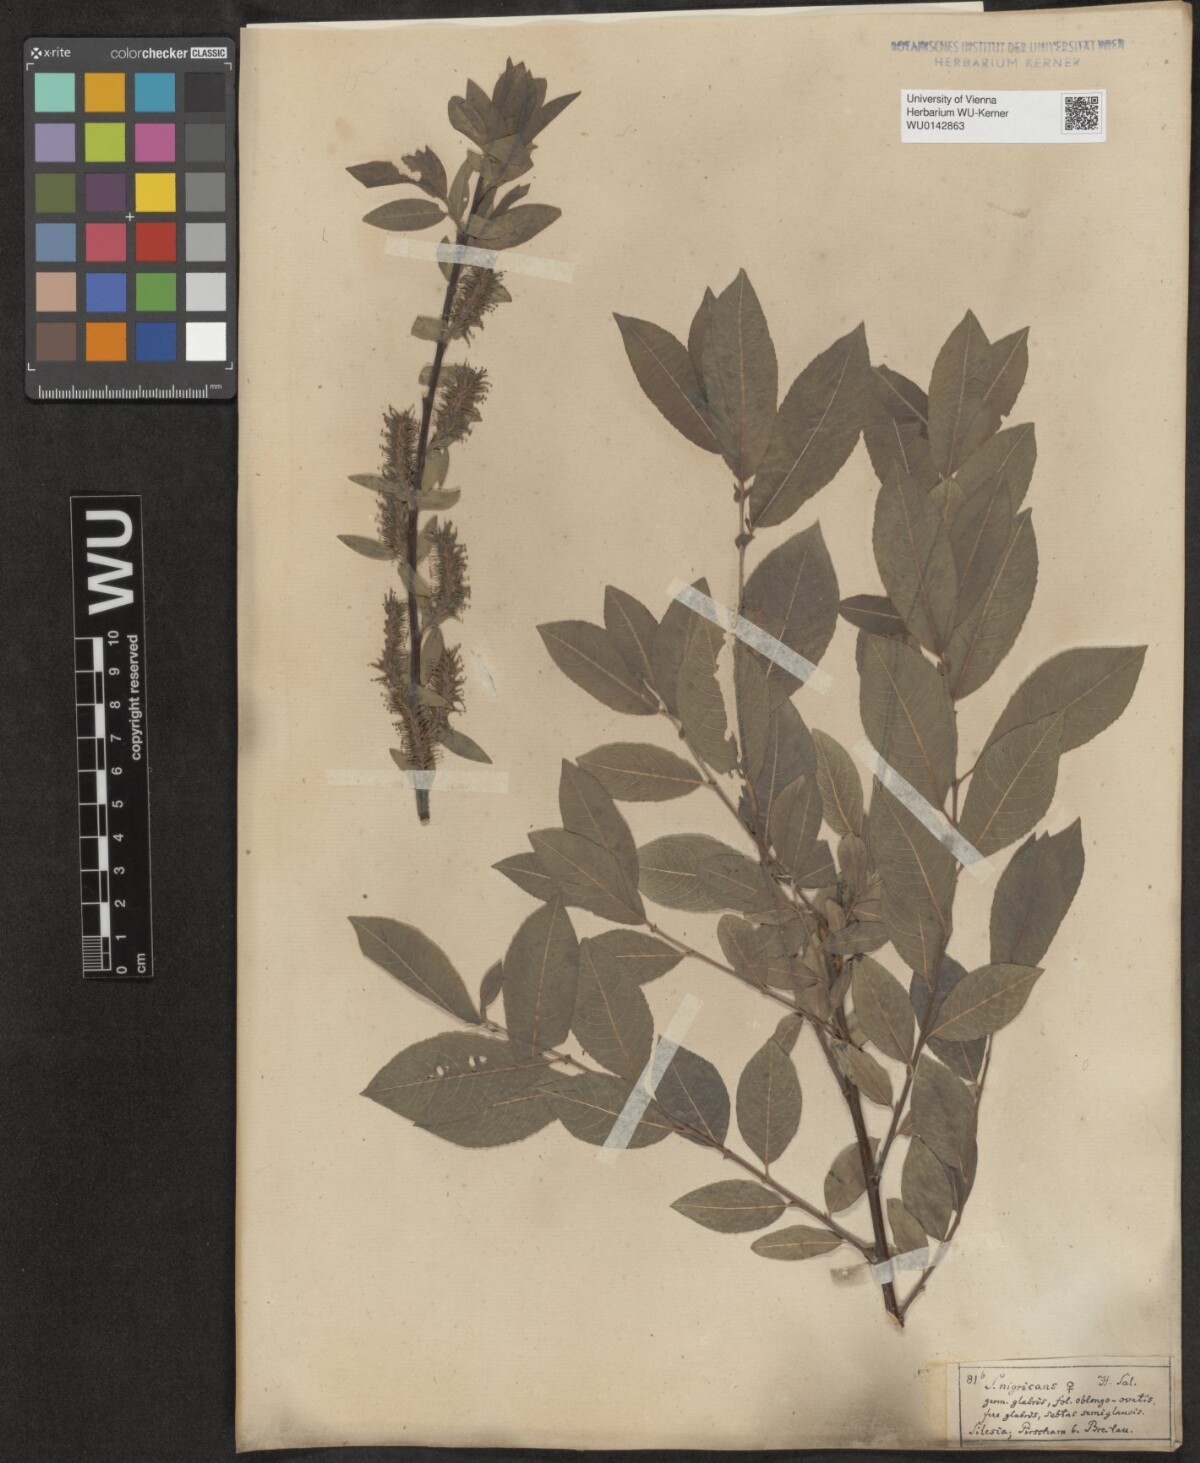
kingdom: Plantae
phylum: Tracheophyta
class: Magnoliopsida
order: Malpighiales
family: Salicaceae
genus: Salix
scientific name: Salix myrsinifolia
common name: Dark-leaved willow
